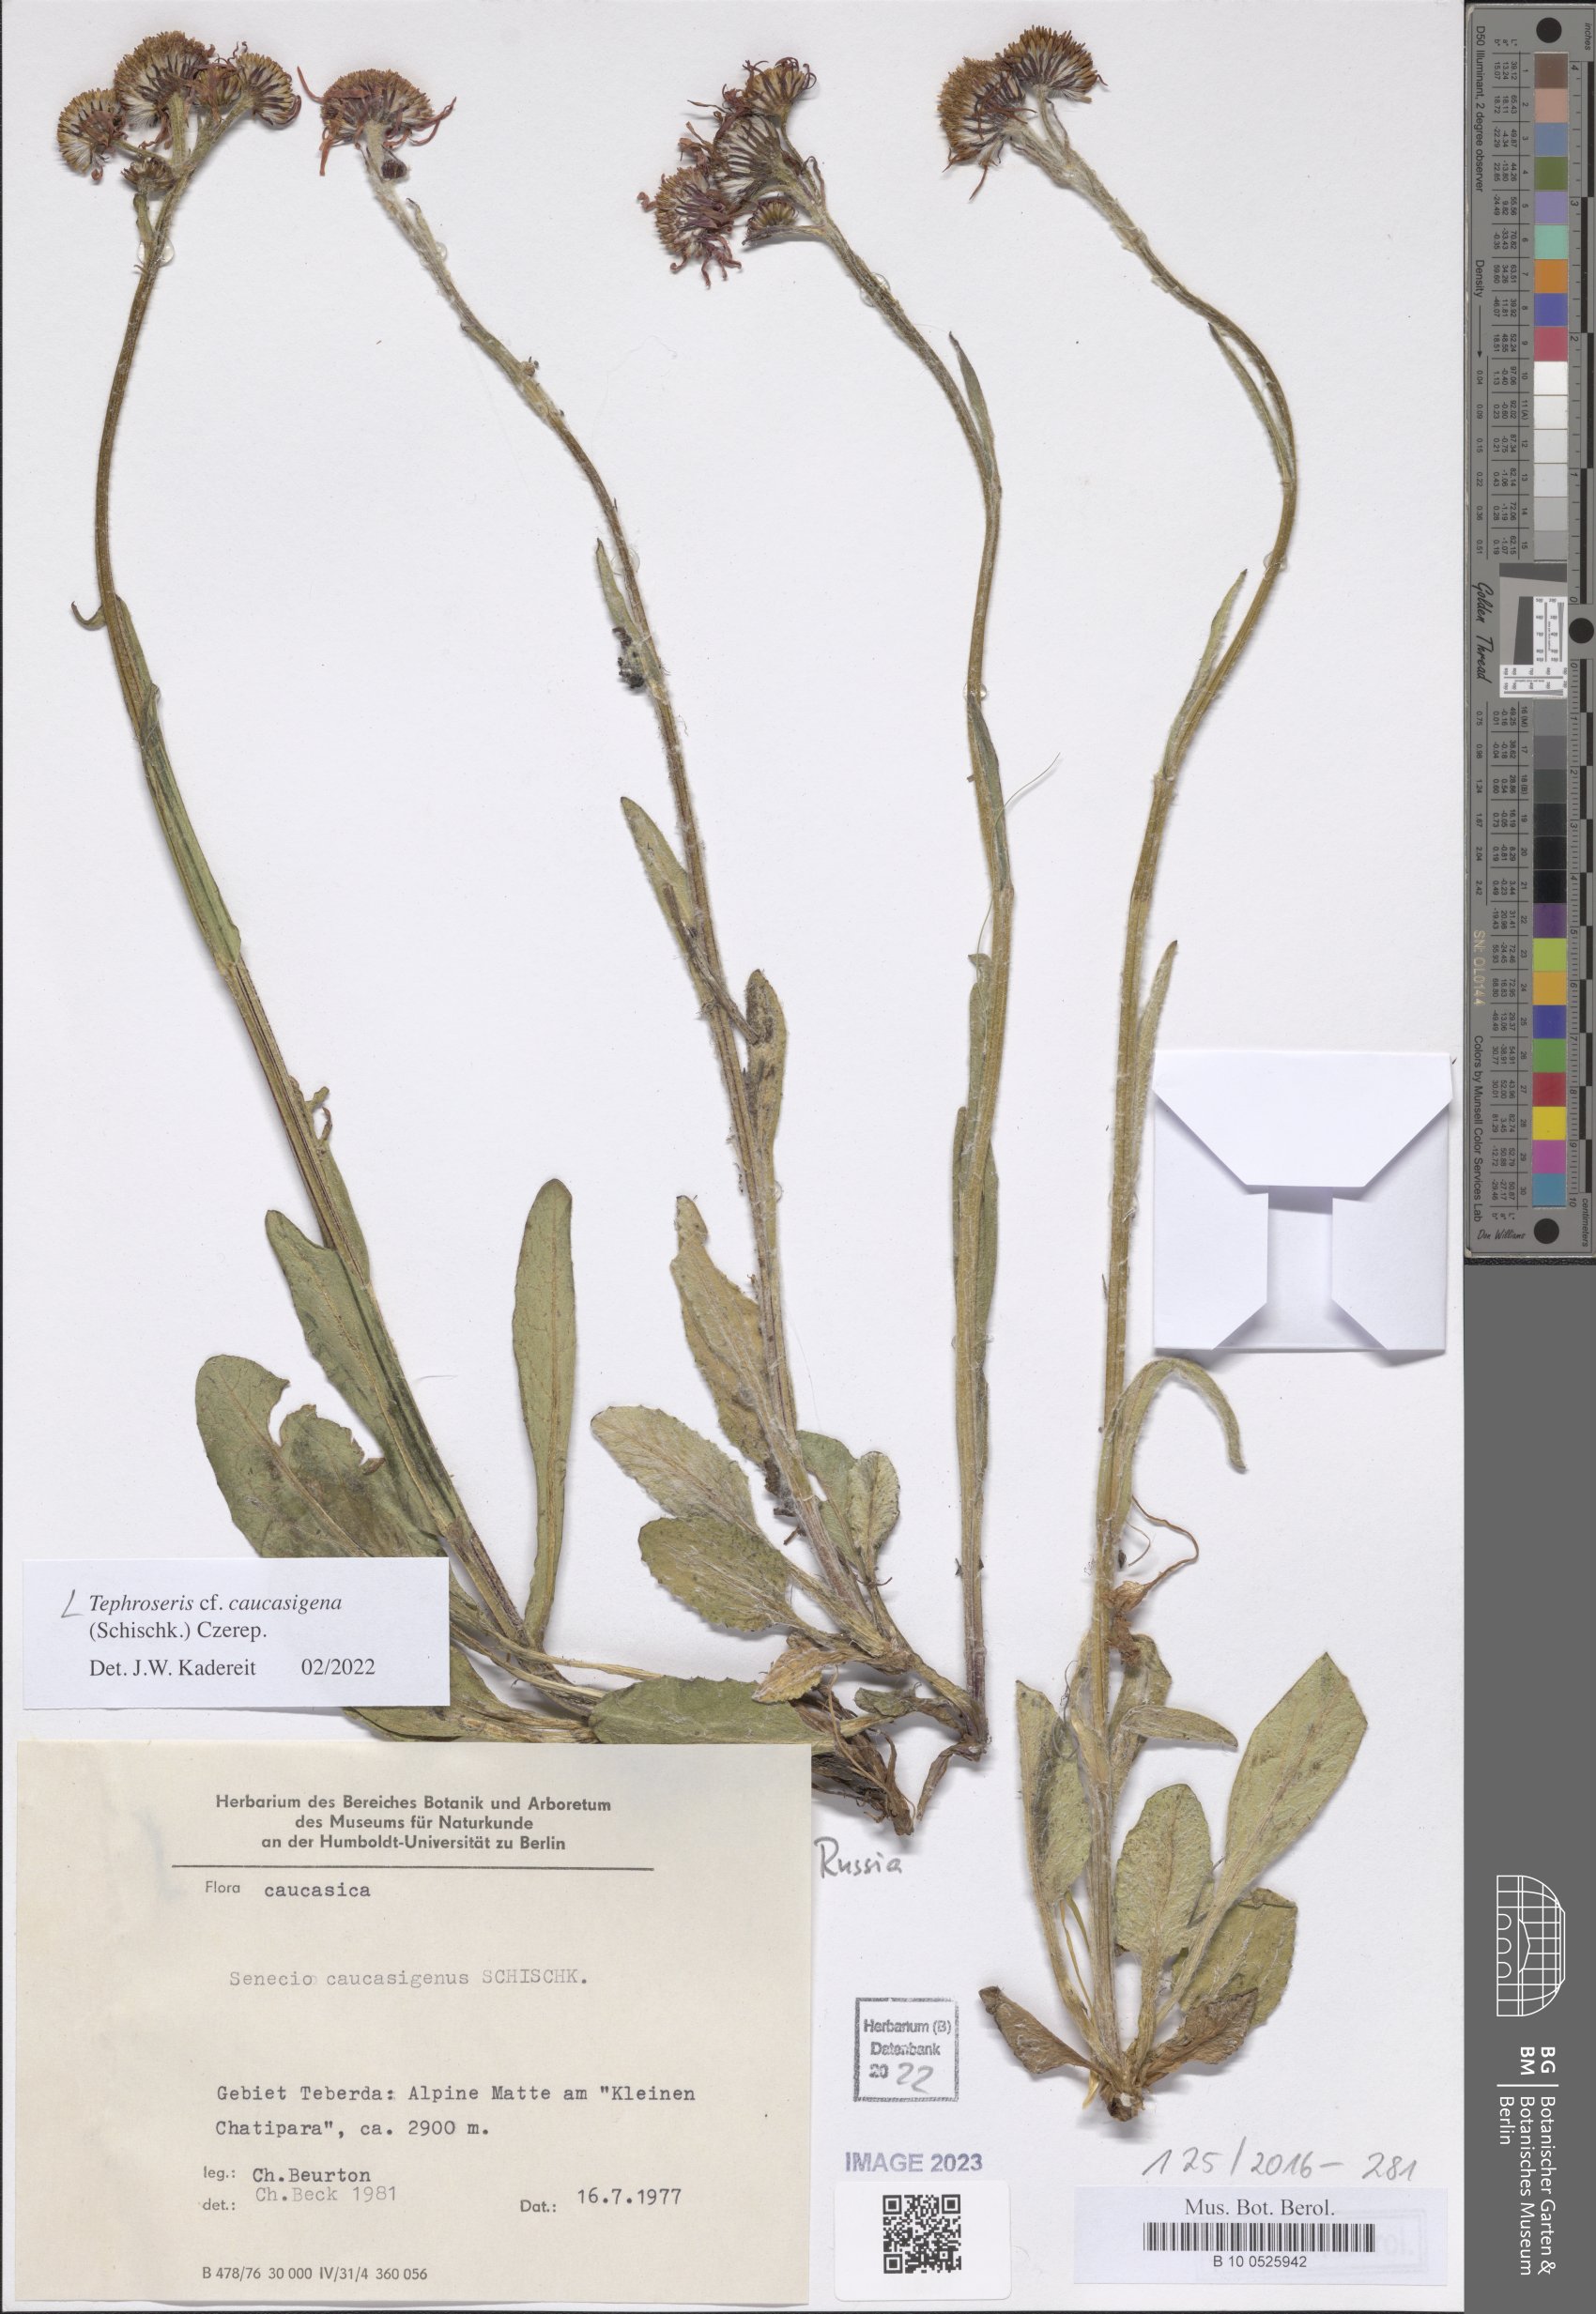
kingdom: Plantae
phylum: Tracheophyta
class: Magnoliopsida
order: Asterales
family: Asteraceae
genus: Tephroseris
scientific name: Tephroseris integrifolia
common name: Field fleawort
